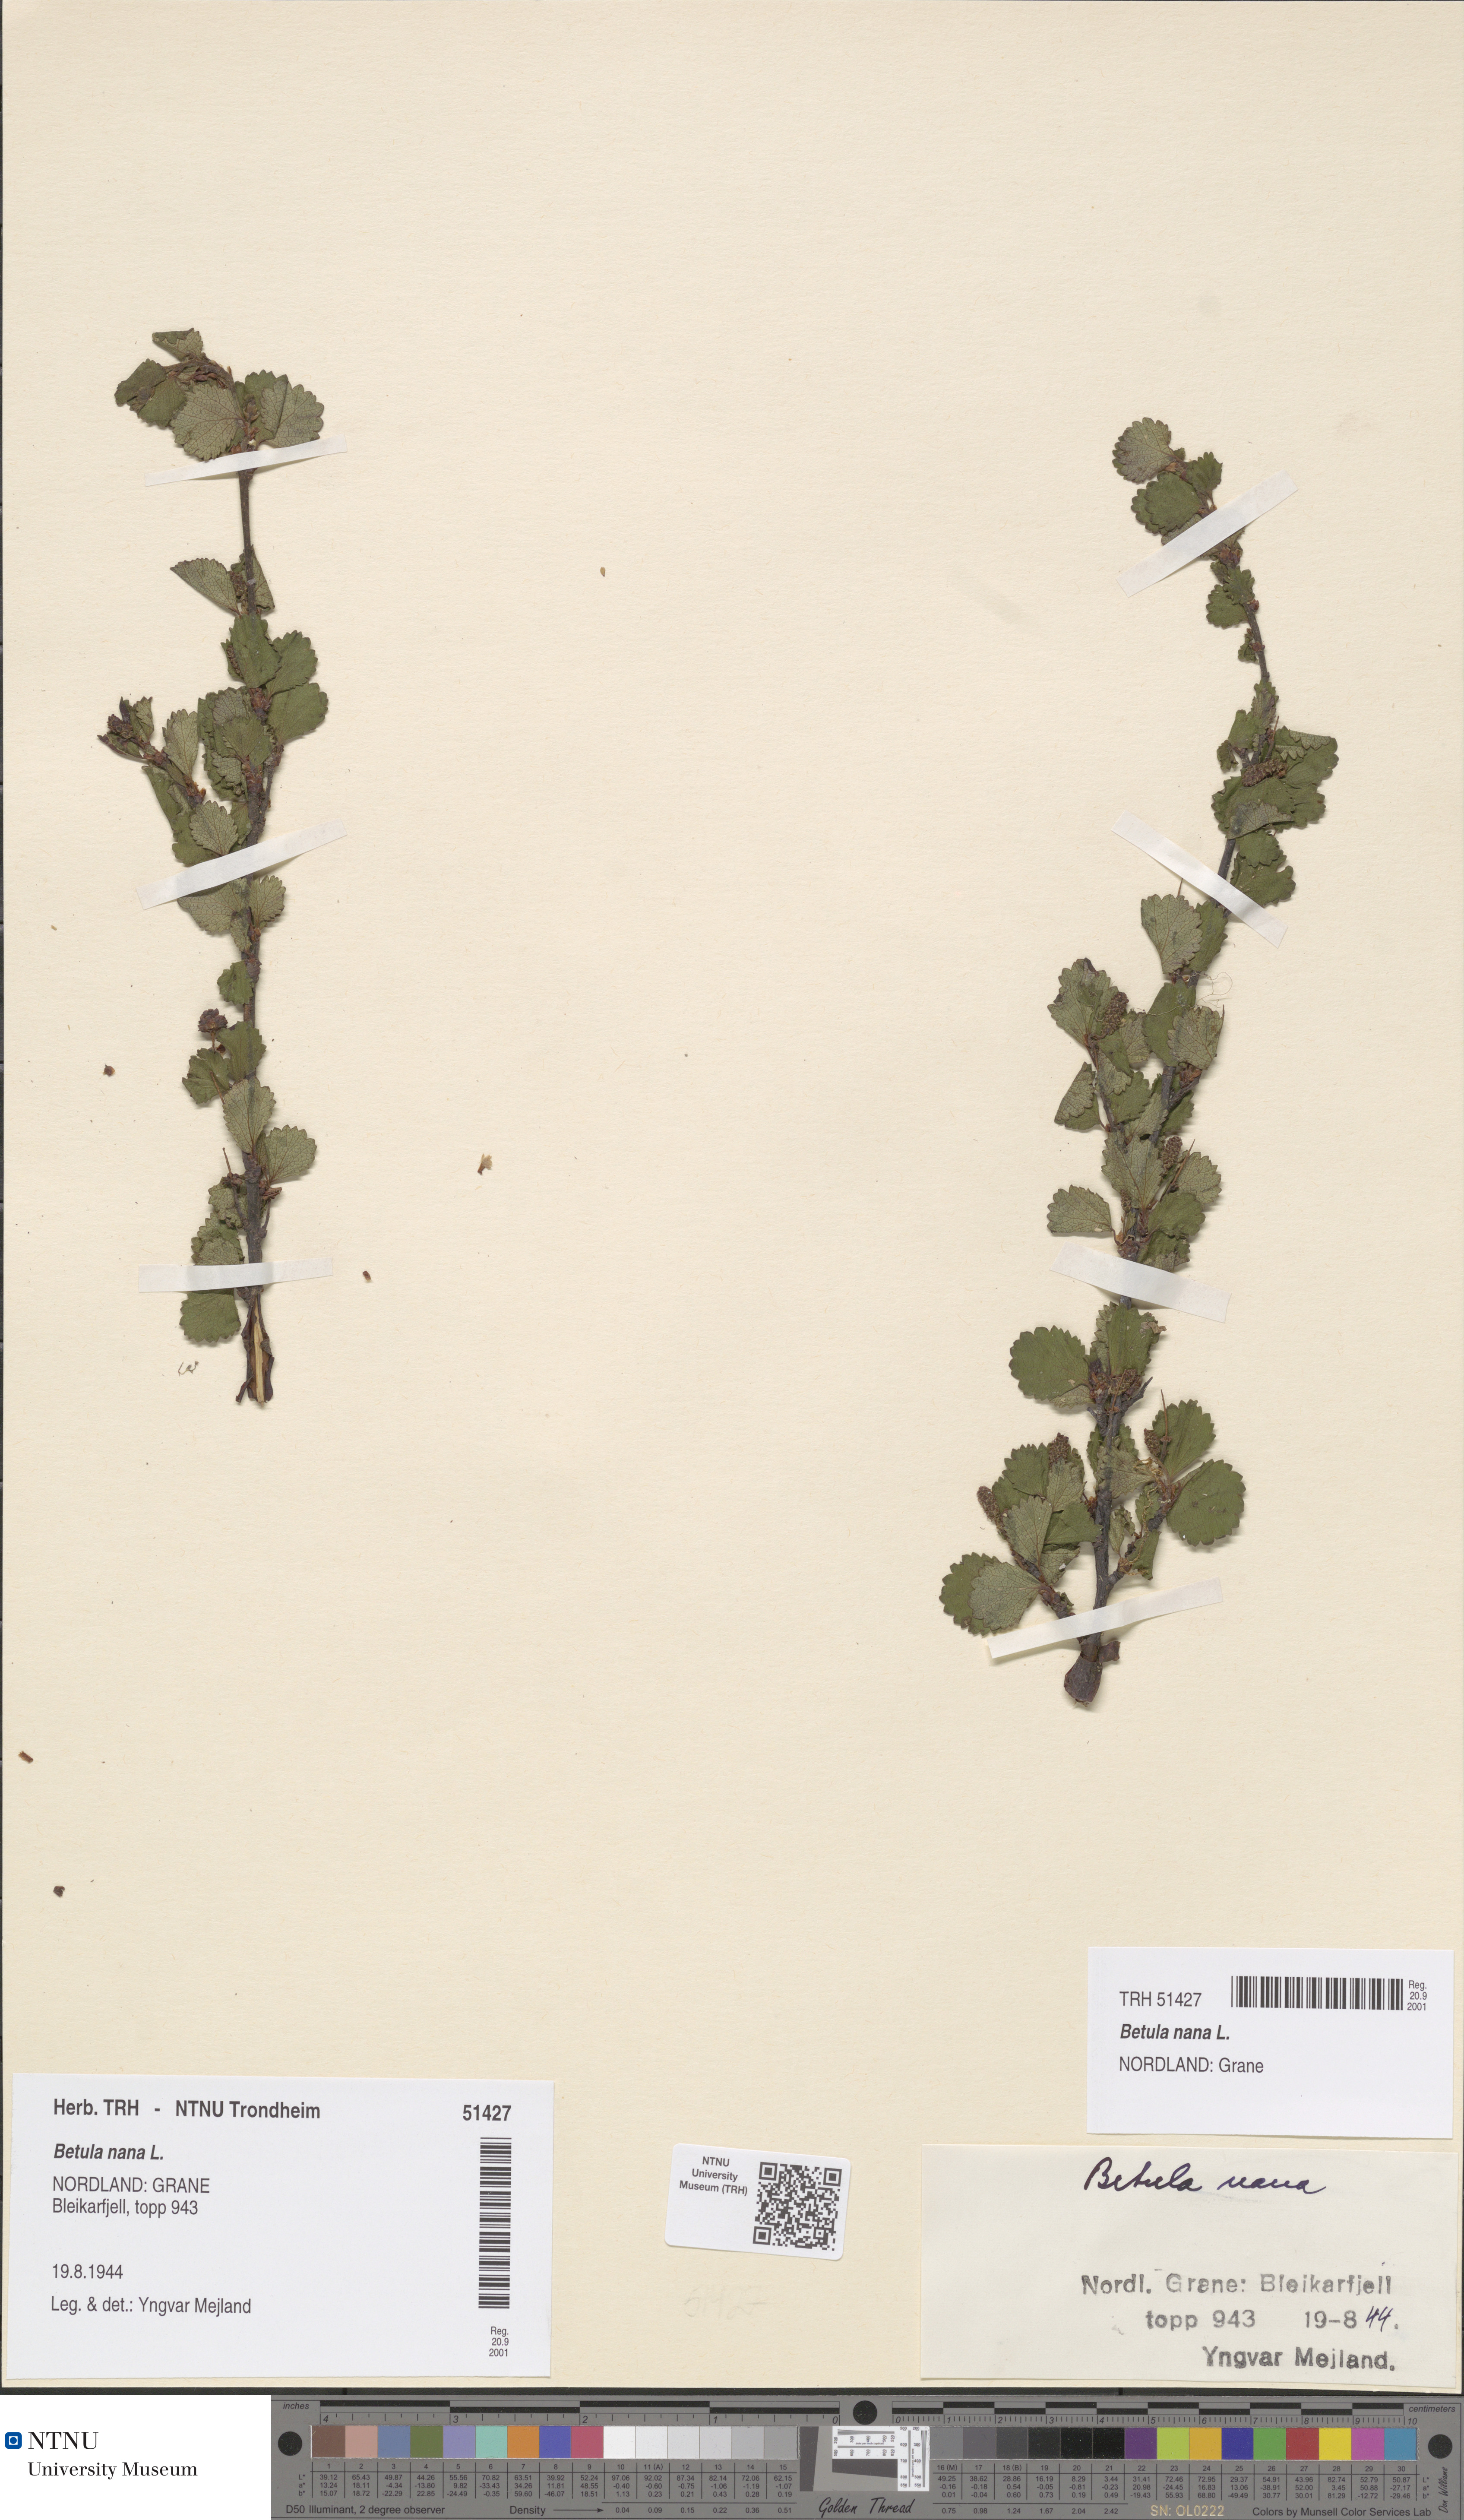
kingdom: Plantae
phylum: Tracheophyta
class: Magnoliopsida
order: Fagales
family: Betulaceae
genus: Betula
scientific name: Betula nana
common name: Arctic dwarf birch
